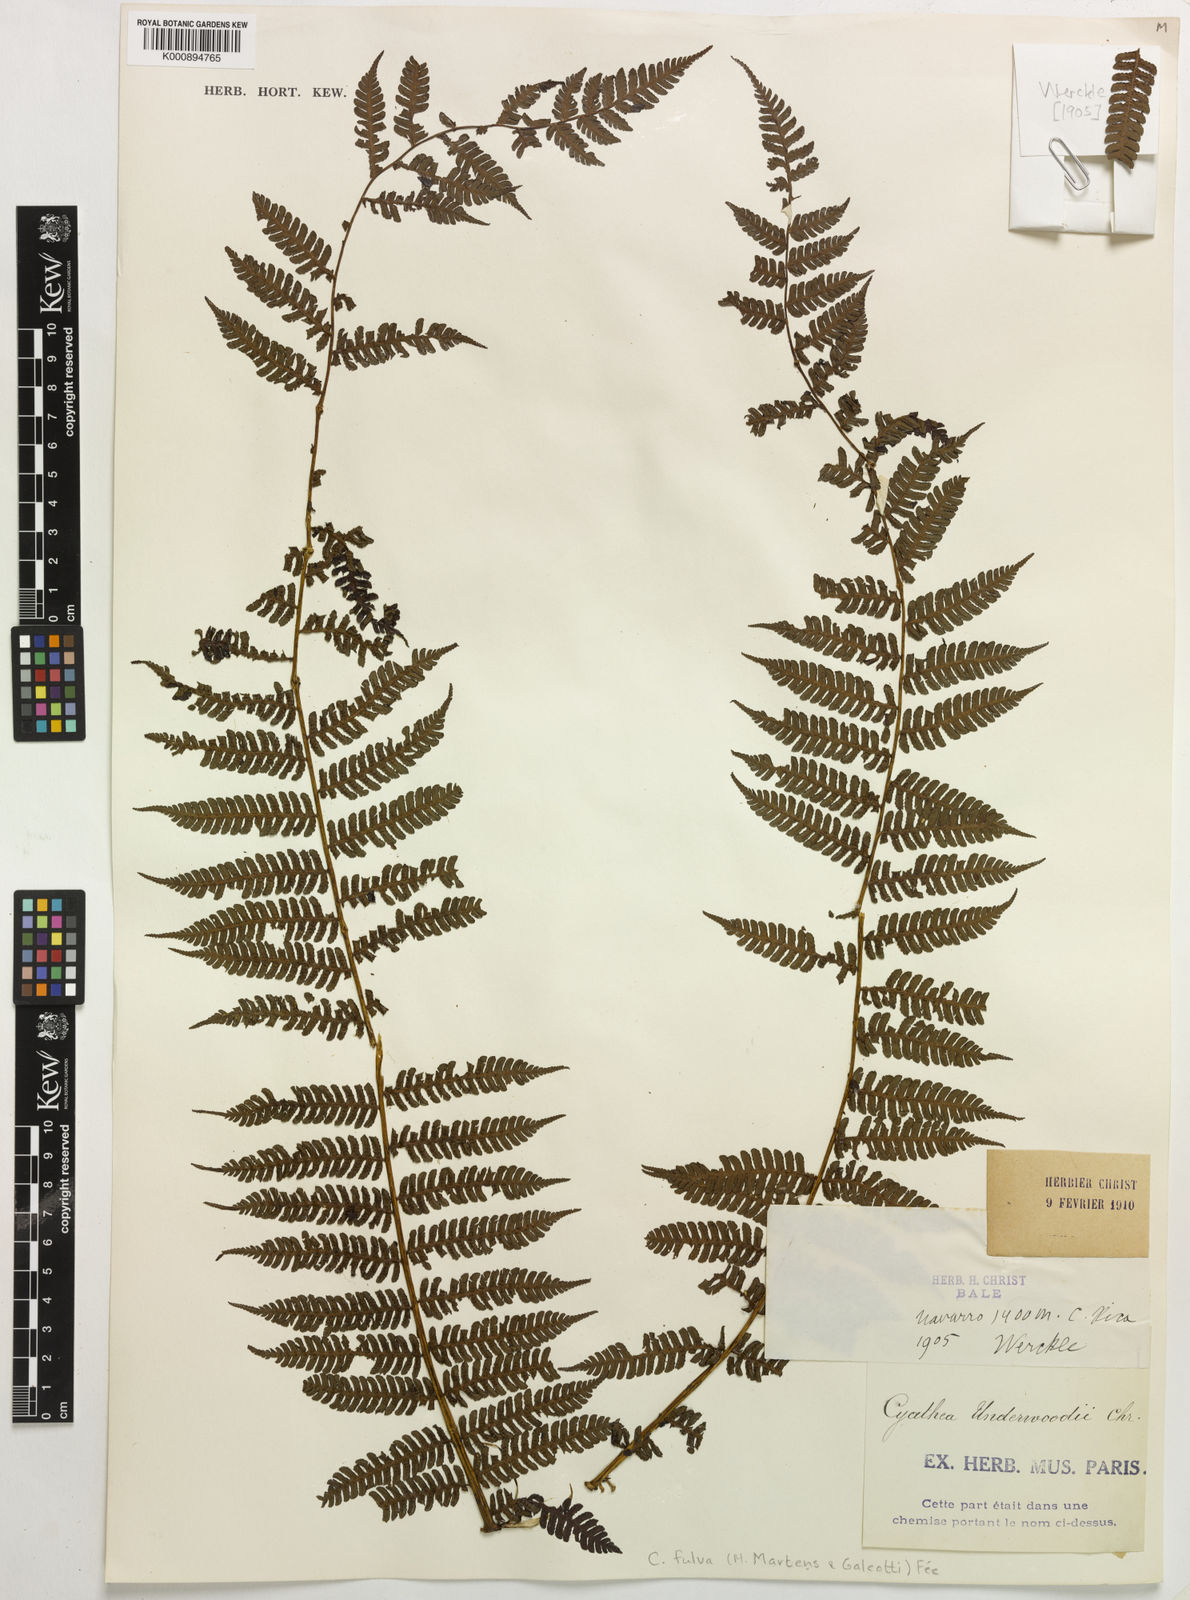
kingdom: Plantae
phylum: Tracheophyta
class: Polypodiopsida
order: Cyatheales
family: Cyatheaceae
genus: Cyathea
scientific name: Cyathea
